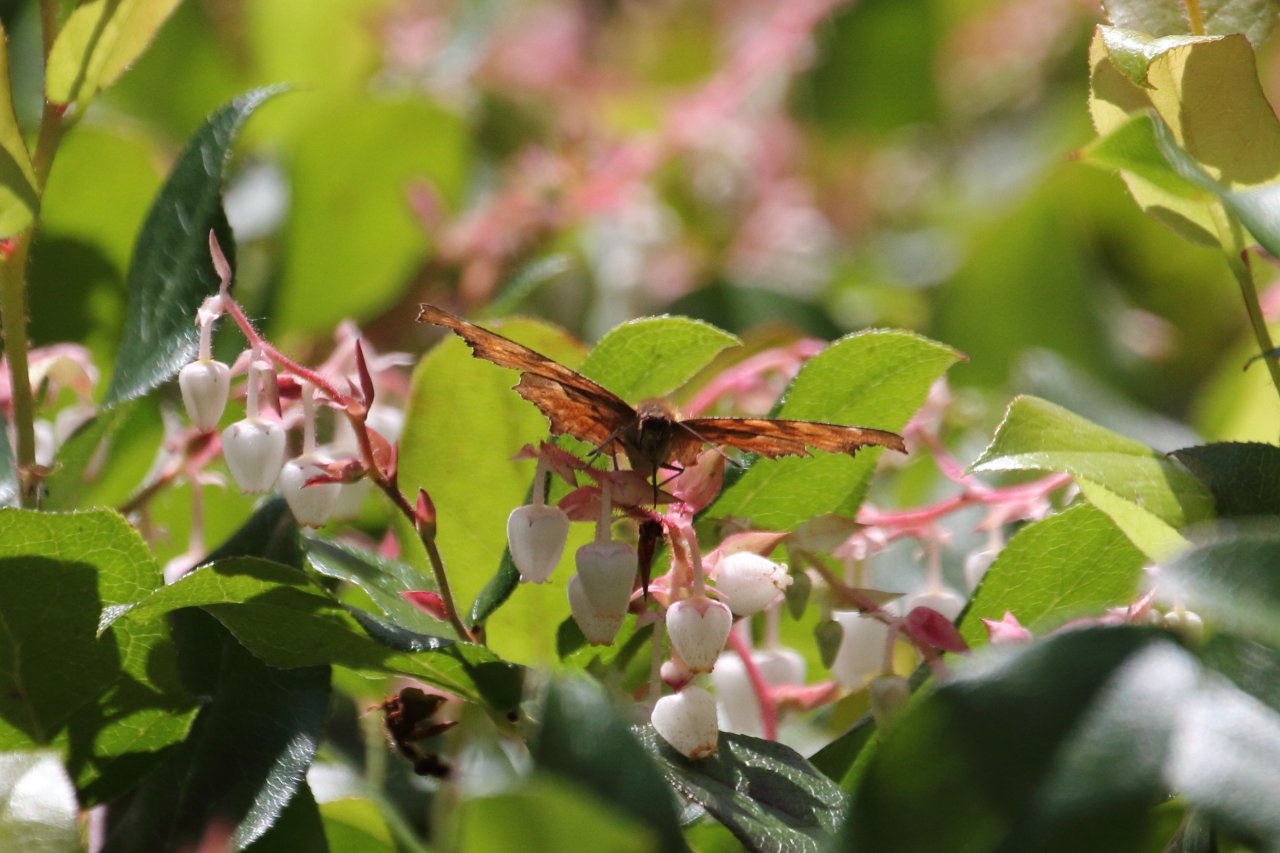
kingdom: Animalia
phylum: Arthropoda
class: Insecta
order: Lepidoptera
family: Nymphalidae
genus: Polygonia
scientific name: Polygonia
